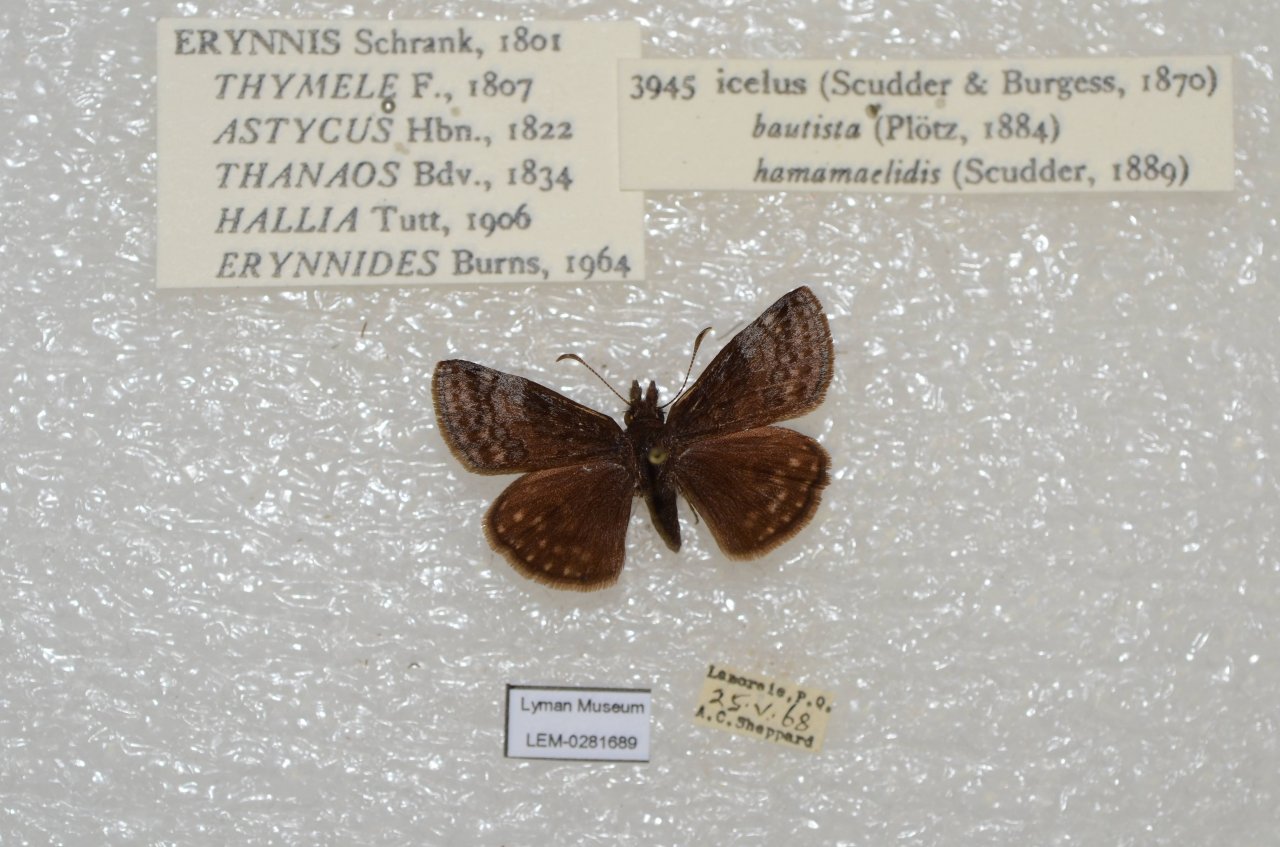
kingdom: Animalia
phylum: Arthropoda
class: Insecta
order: Lepidoptera
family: Hesperiidae
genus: Erynnis
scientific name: Erynnis icelus
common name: Dreamy Duskywing
